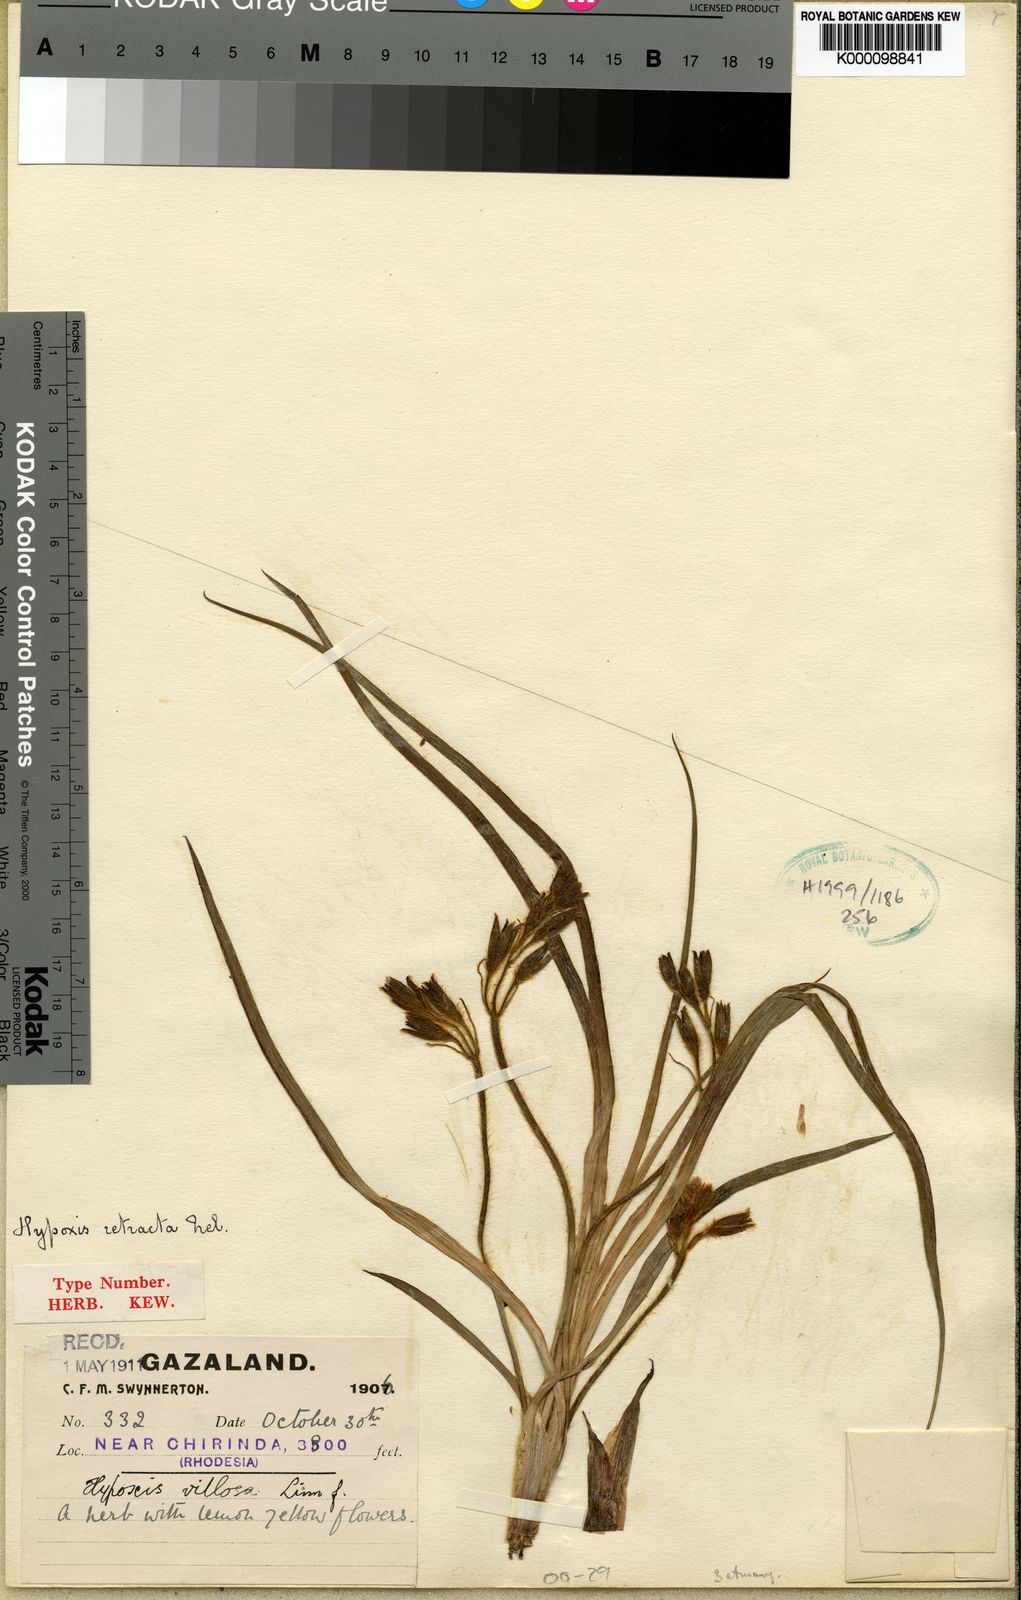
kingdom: Plantae
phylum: Tracheophyta
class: Liliopsida
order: Asparagales
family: Hypoxidaceae
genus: Hypoxis
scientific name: Hypoxis nyasica
